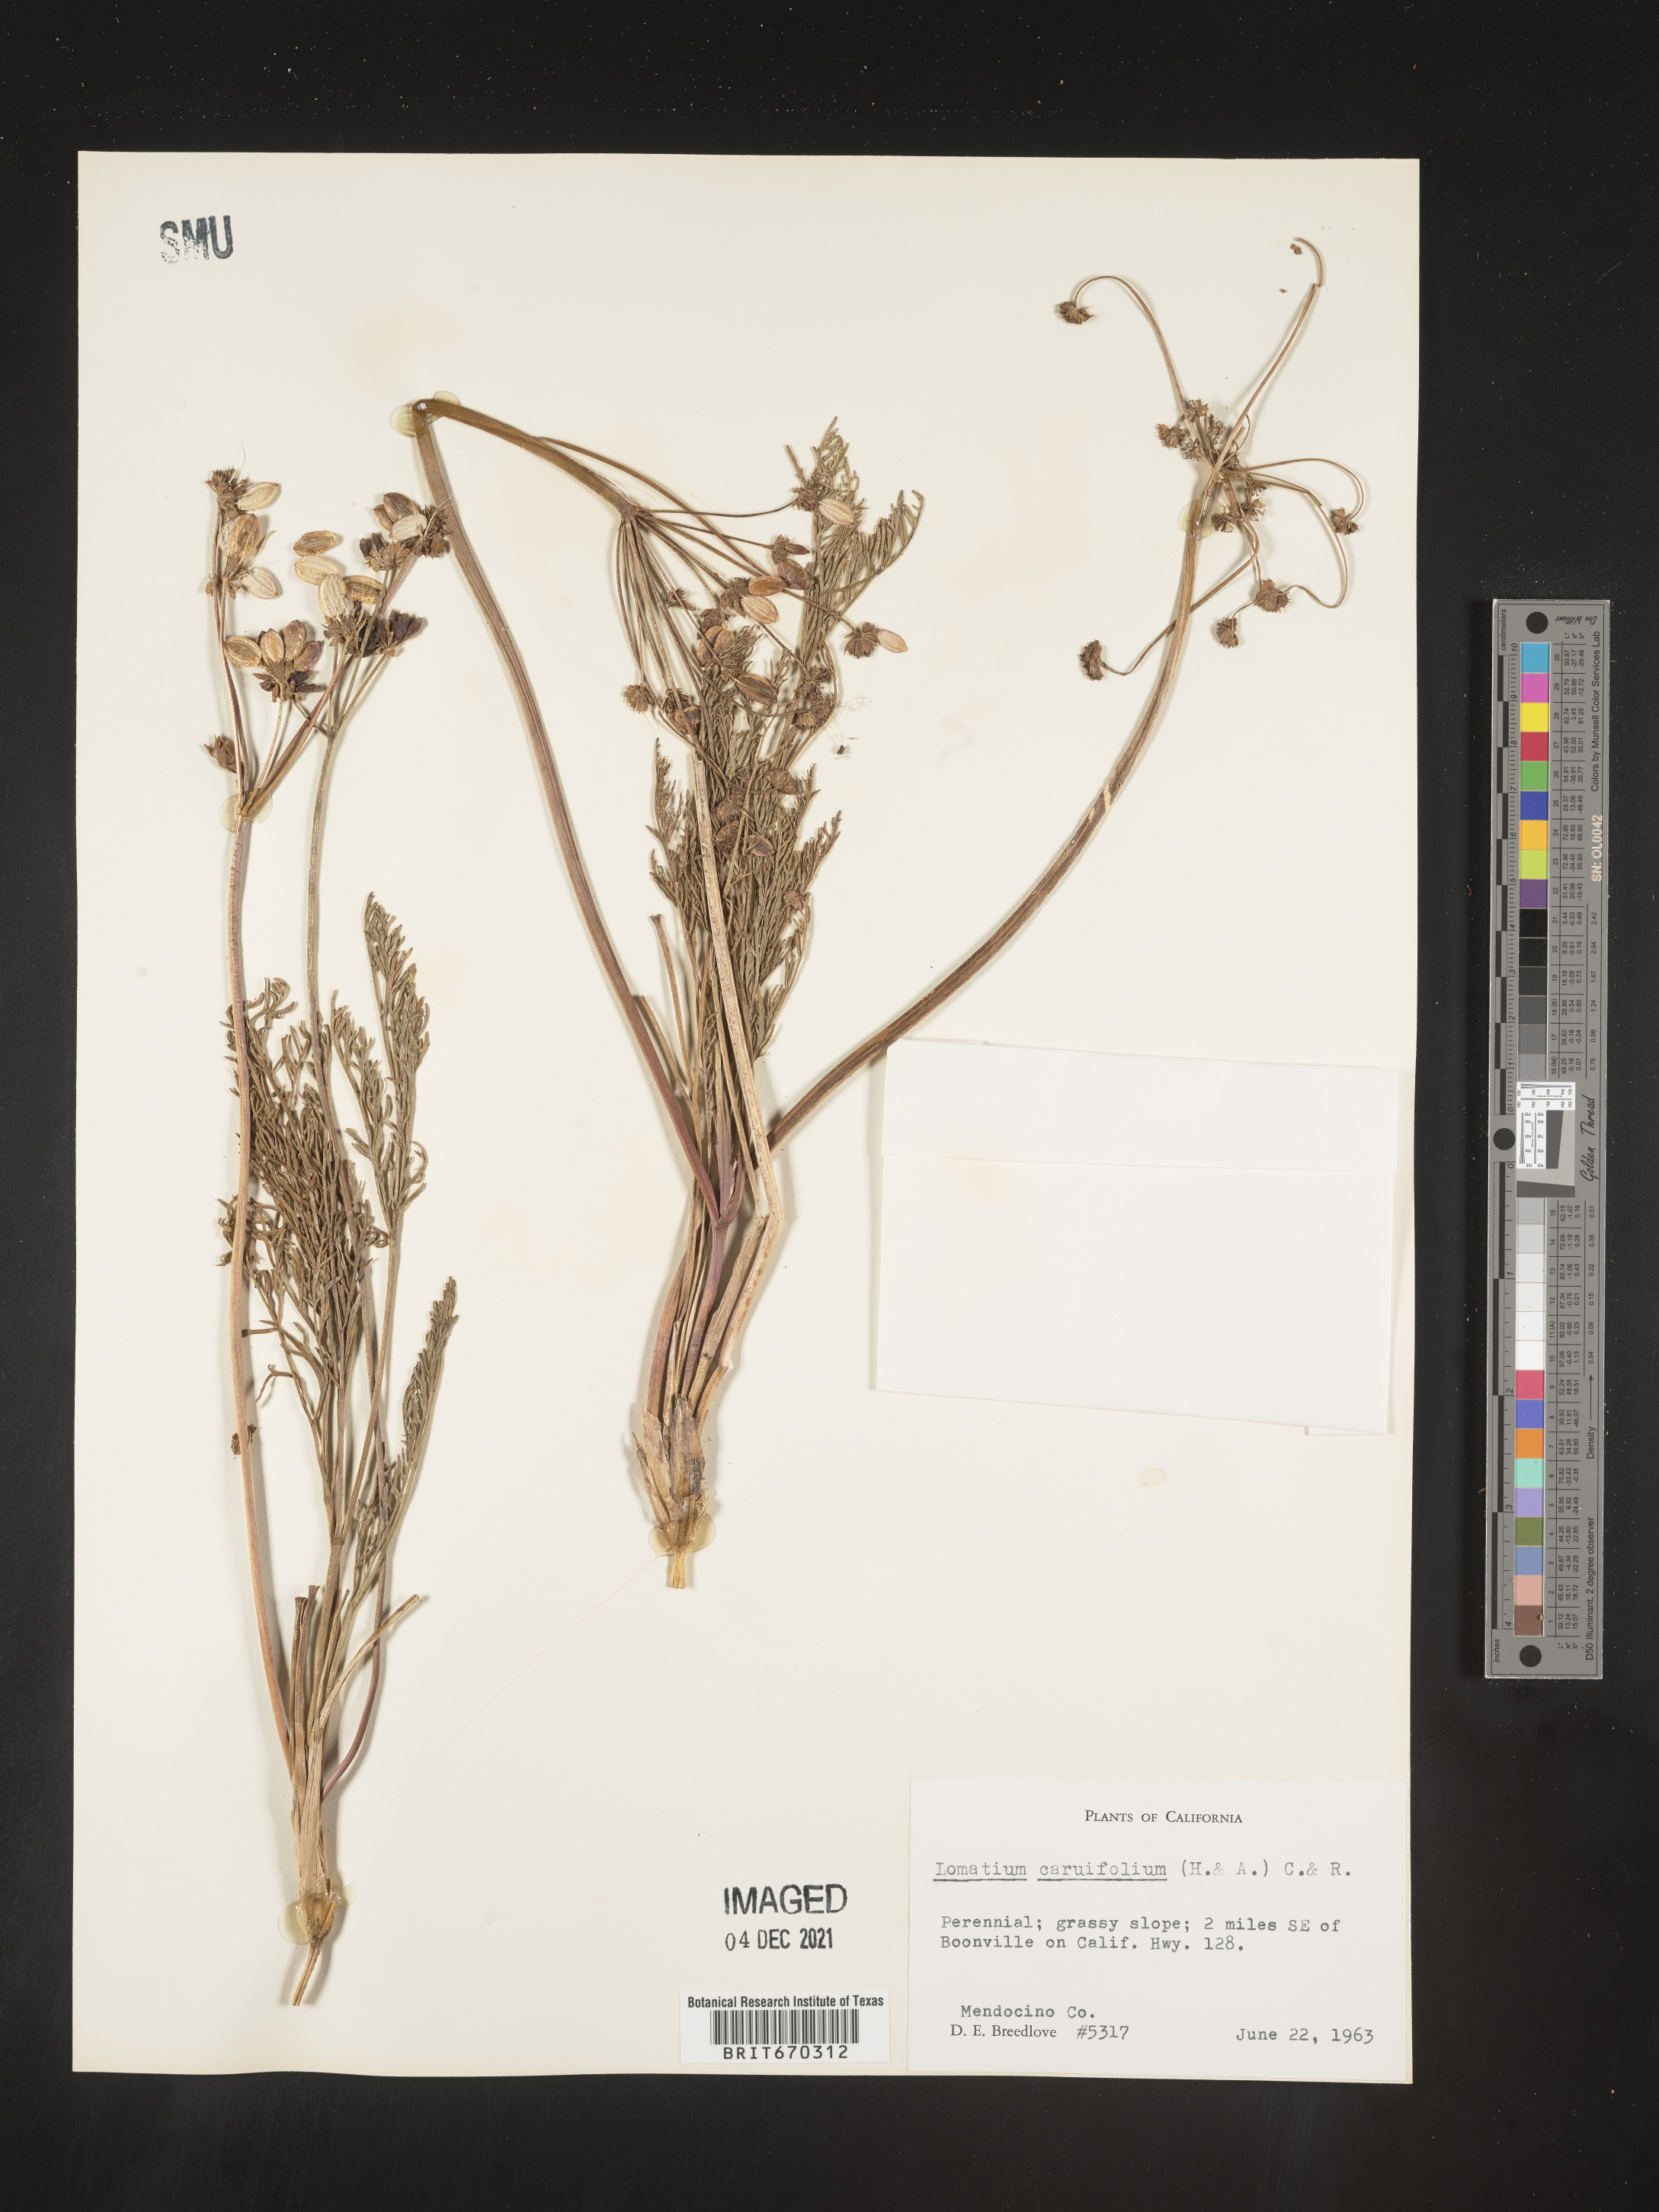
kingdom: Plantae
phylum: Tracheophyta
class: Magnoliopsida
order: Apiales
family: Apiaceae
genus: Lomatium
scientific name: Lomatium caruifolium
